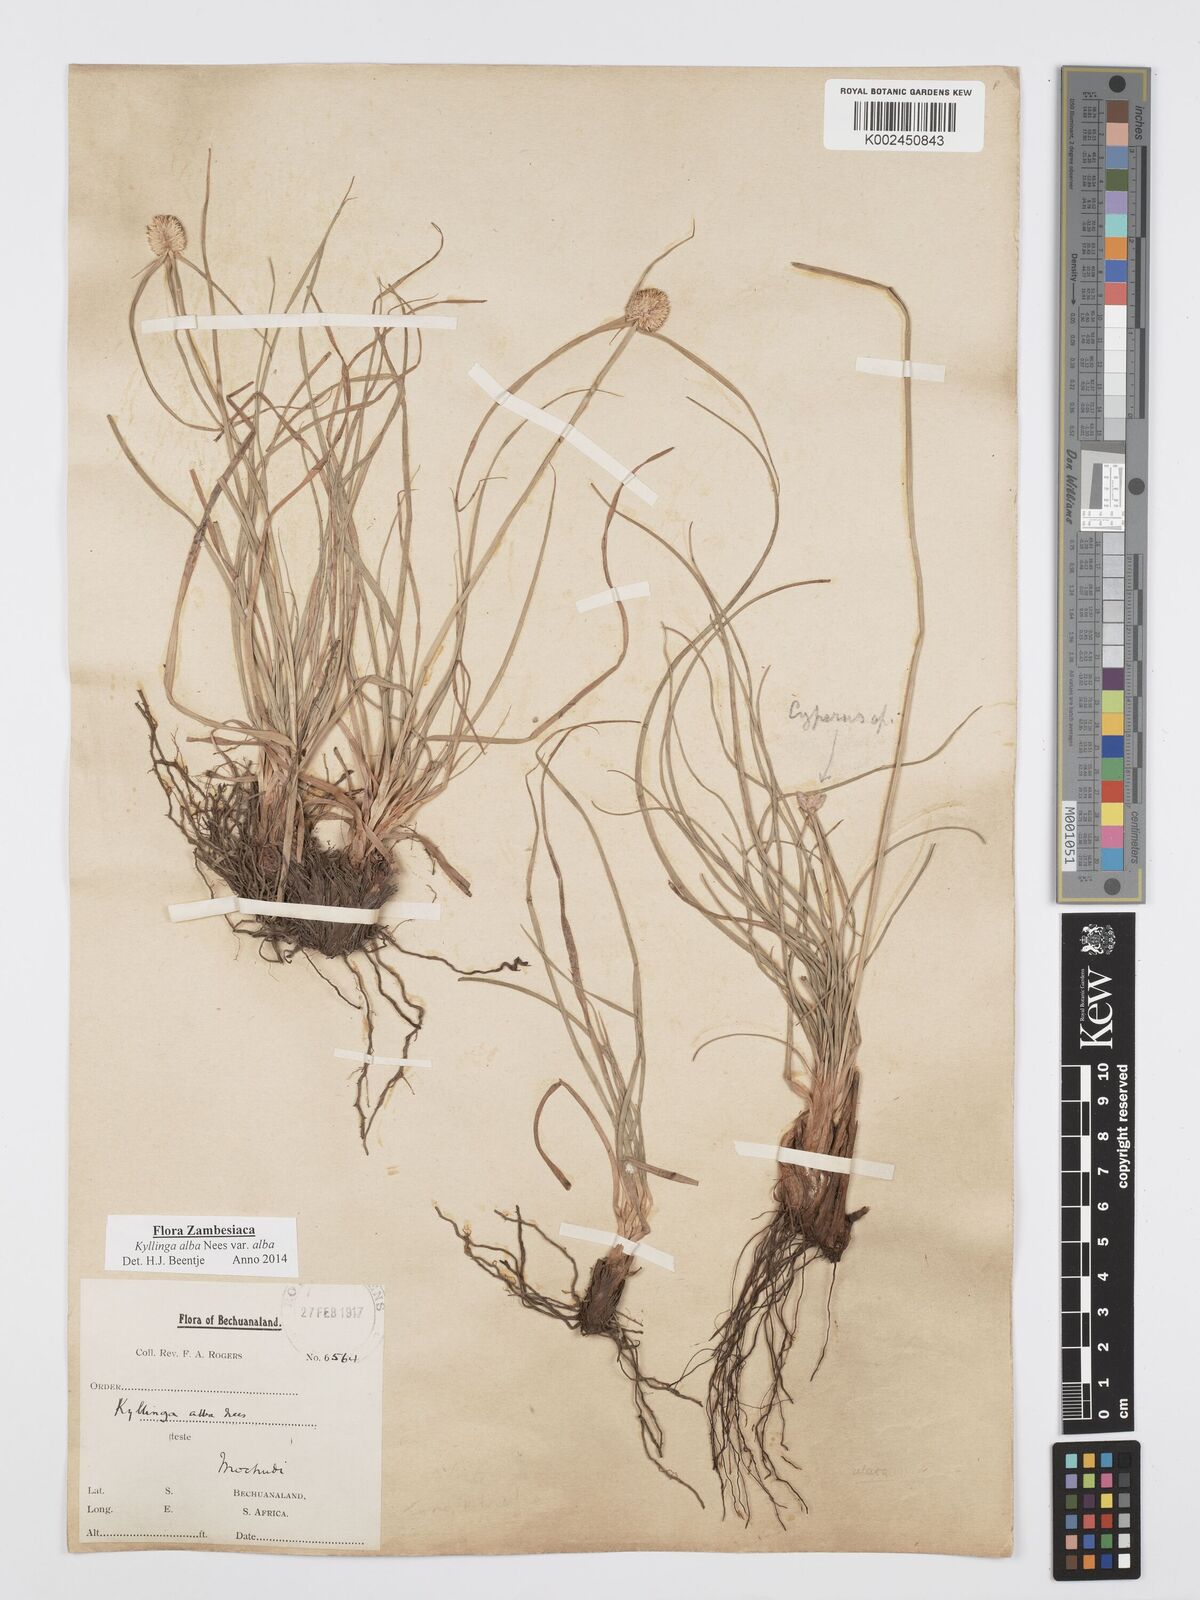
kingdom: Plantae
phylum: Tracheophyta
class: Liliopsida
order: Poales
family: Cyperaceae
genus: Cyperus
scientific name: Cyperus
